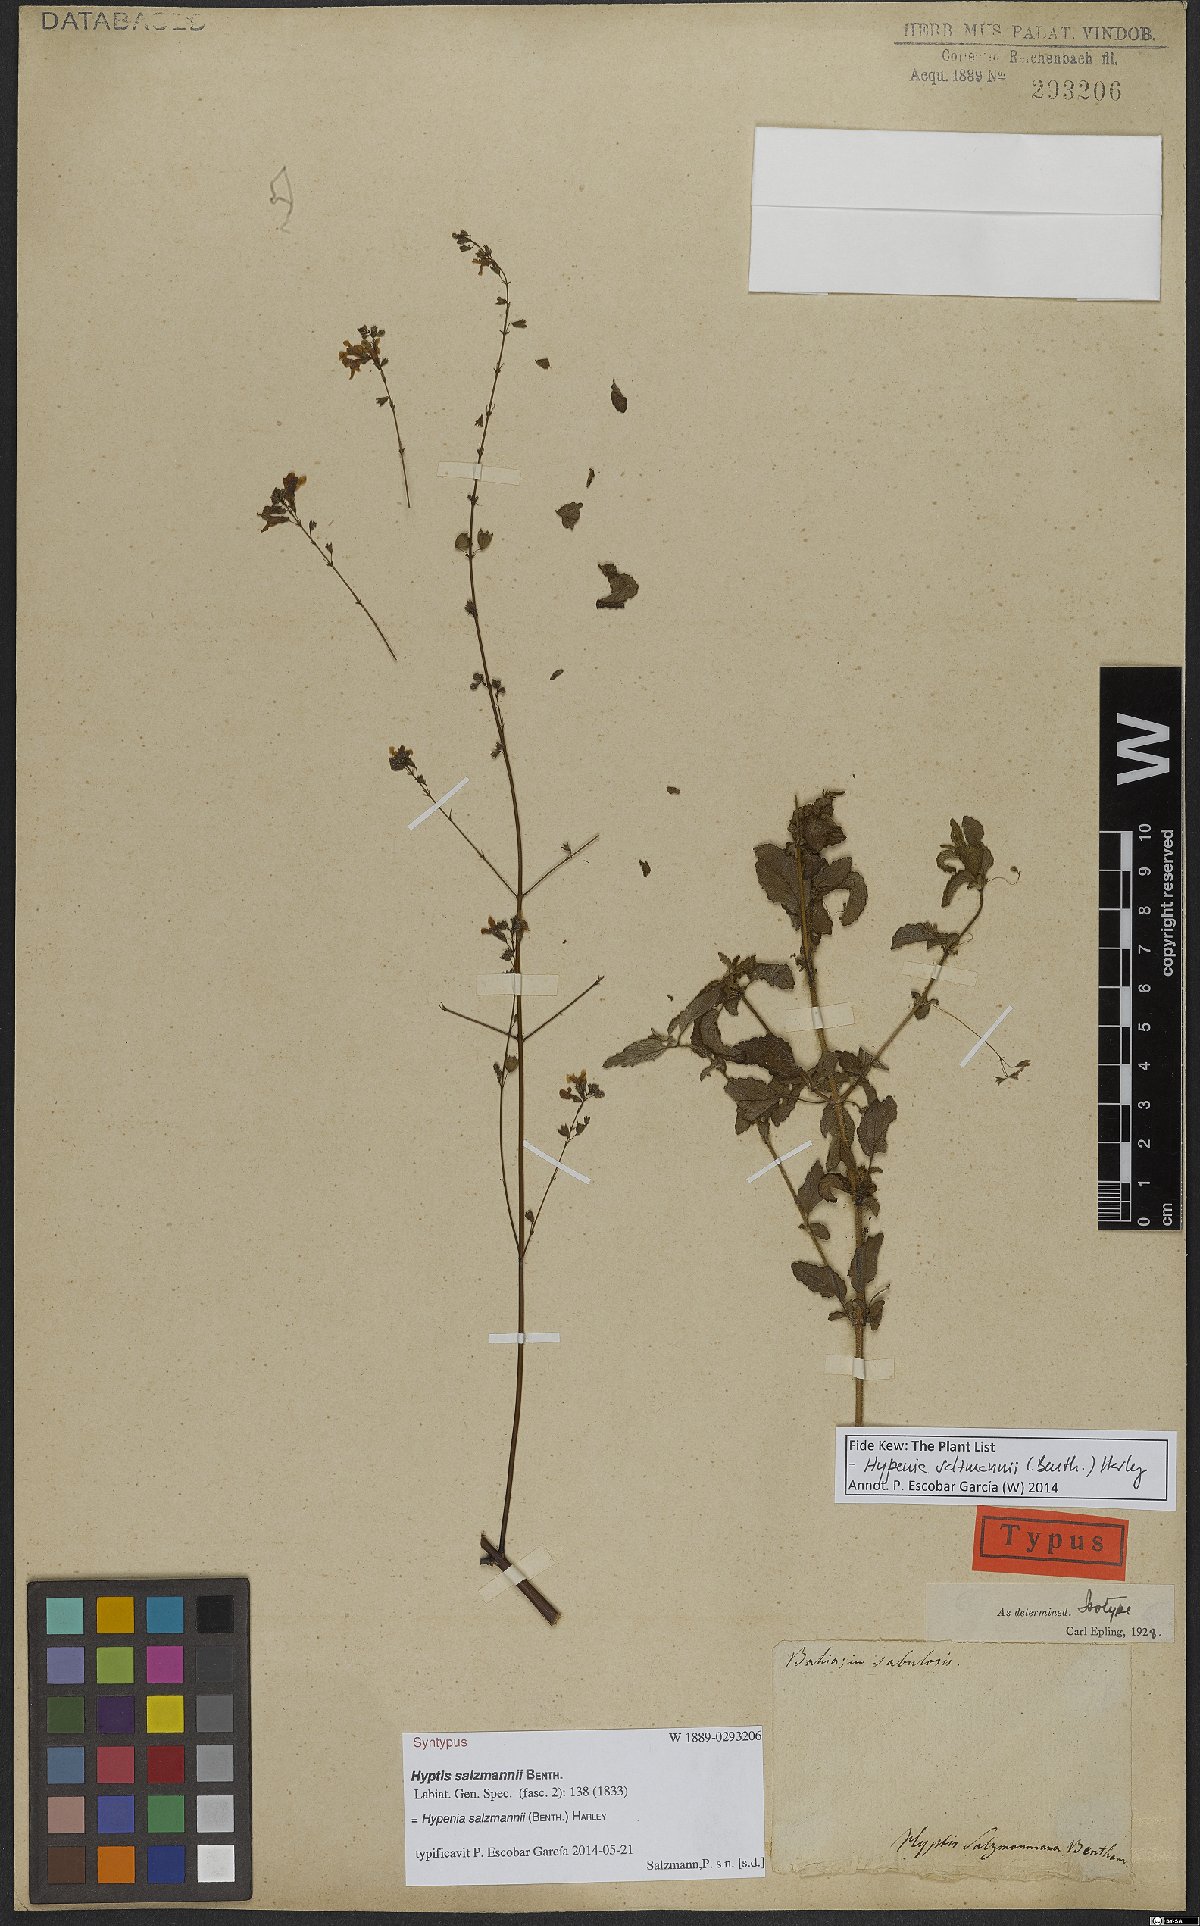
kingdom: Plantae
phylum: Tracheophyta
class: Magnoliopsida
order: Lamiales
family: Lamiaceae
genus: Hypenia
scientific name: Hypenia salzmannii
